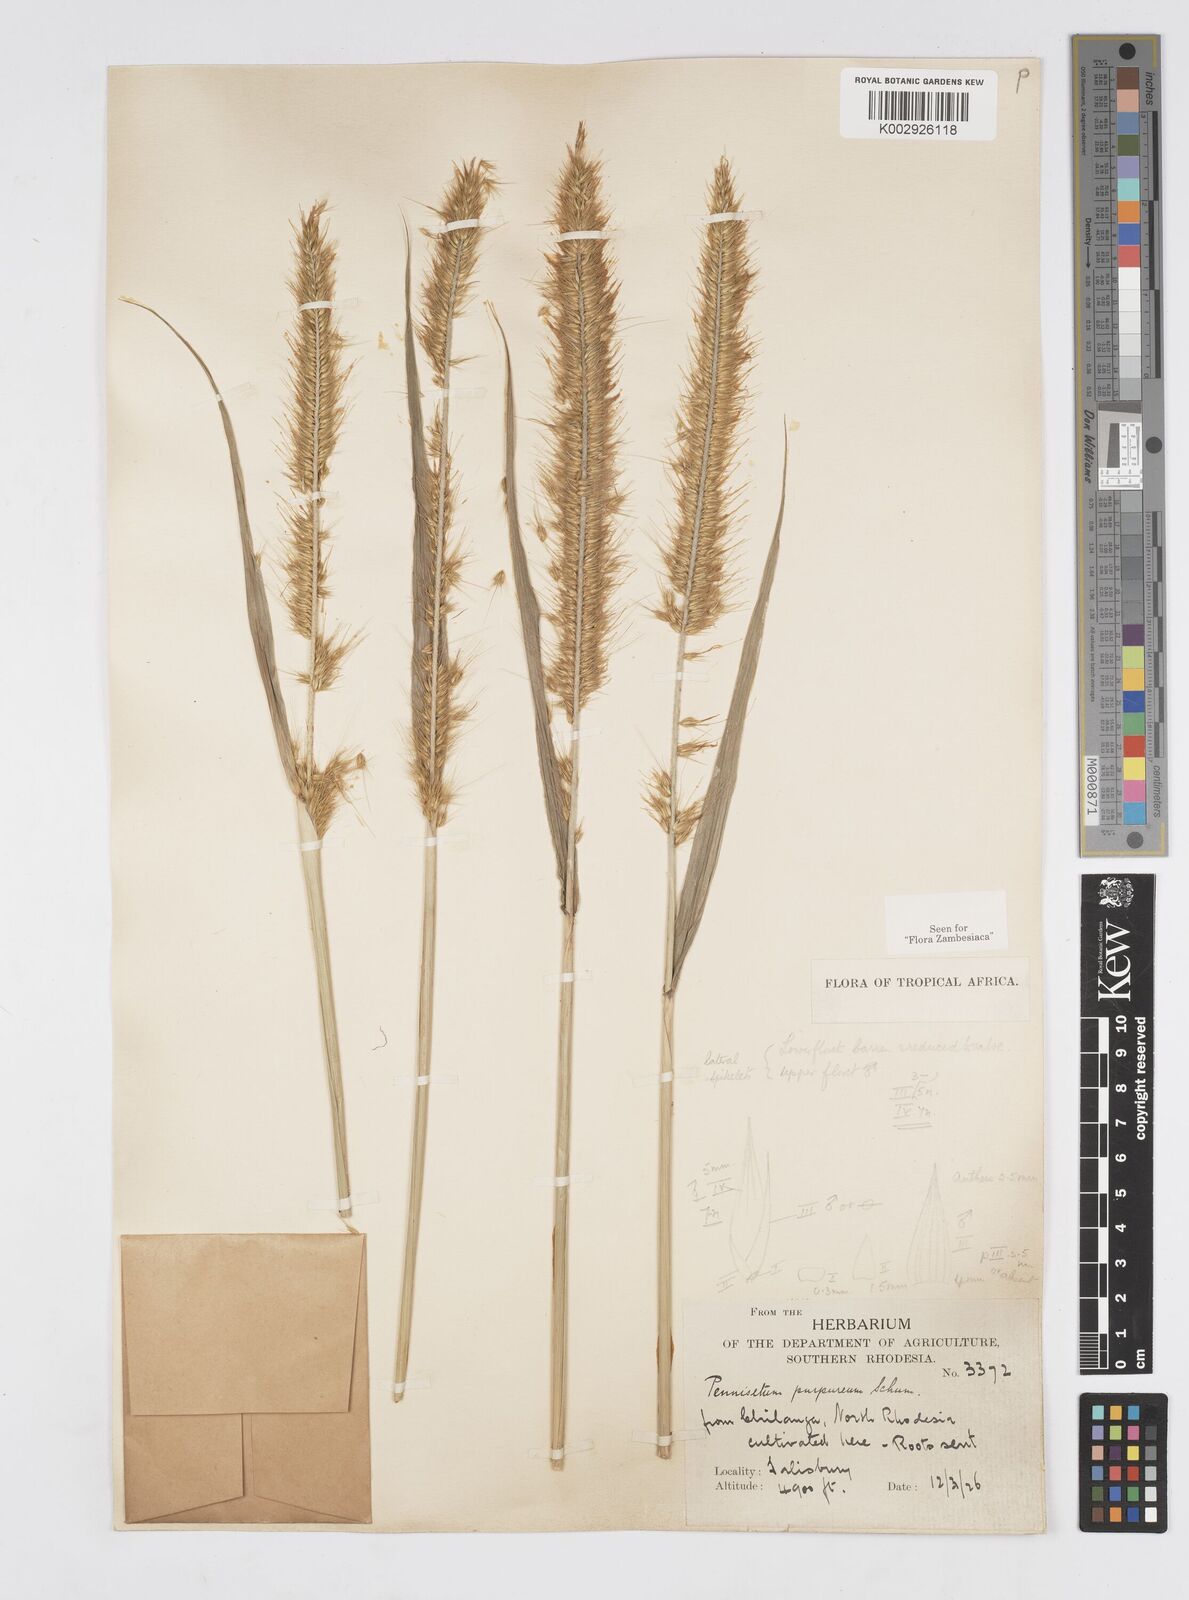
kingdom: Plantae
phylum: Tracheophyta
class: Liliopsida
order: Poales
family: Poaceae
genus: Cenchrus
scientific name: Cenchrus purpureus
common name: Elephant grass
